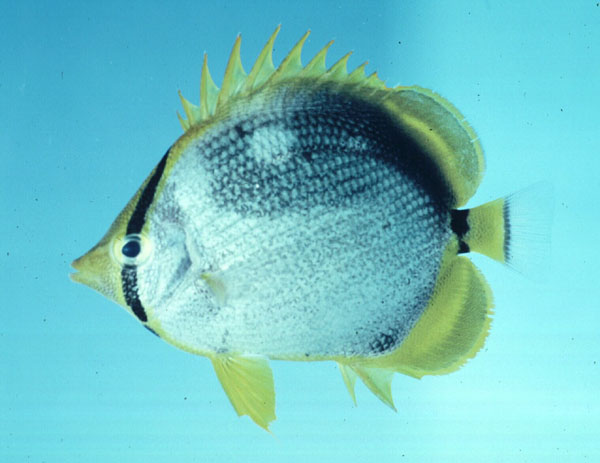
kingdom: Animalia
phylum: Chordata
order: Perciformes
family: Chaetodontidae
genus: Chaetodon
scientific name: Chaetodon melannotus
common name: Blackback butterflyfish
